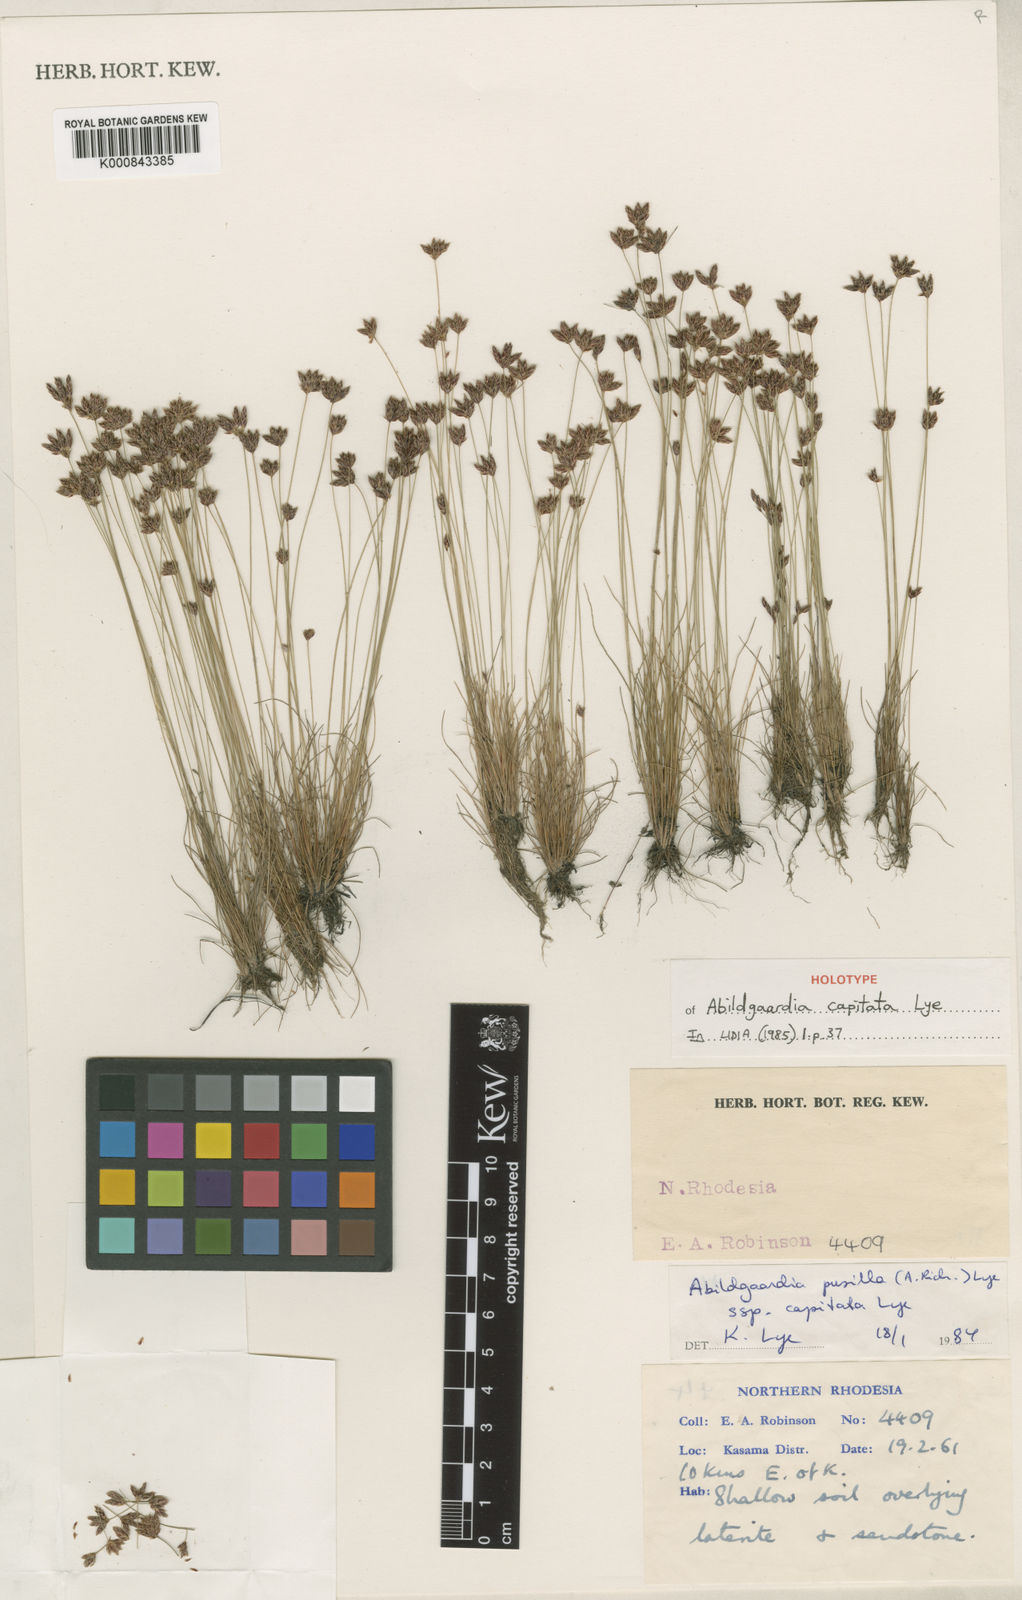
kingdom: Plantae
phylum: Tracheophyta
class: Liliopsida
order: Poales
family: Cyperaceae
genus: Bulbostylis
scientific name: Bulbostylis capitata
